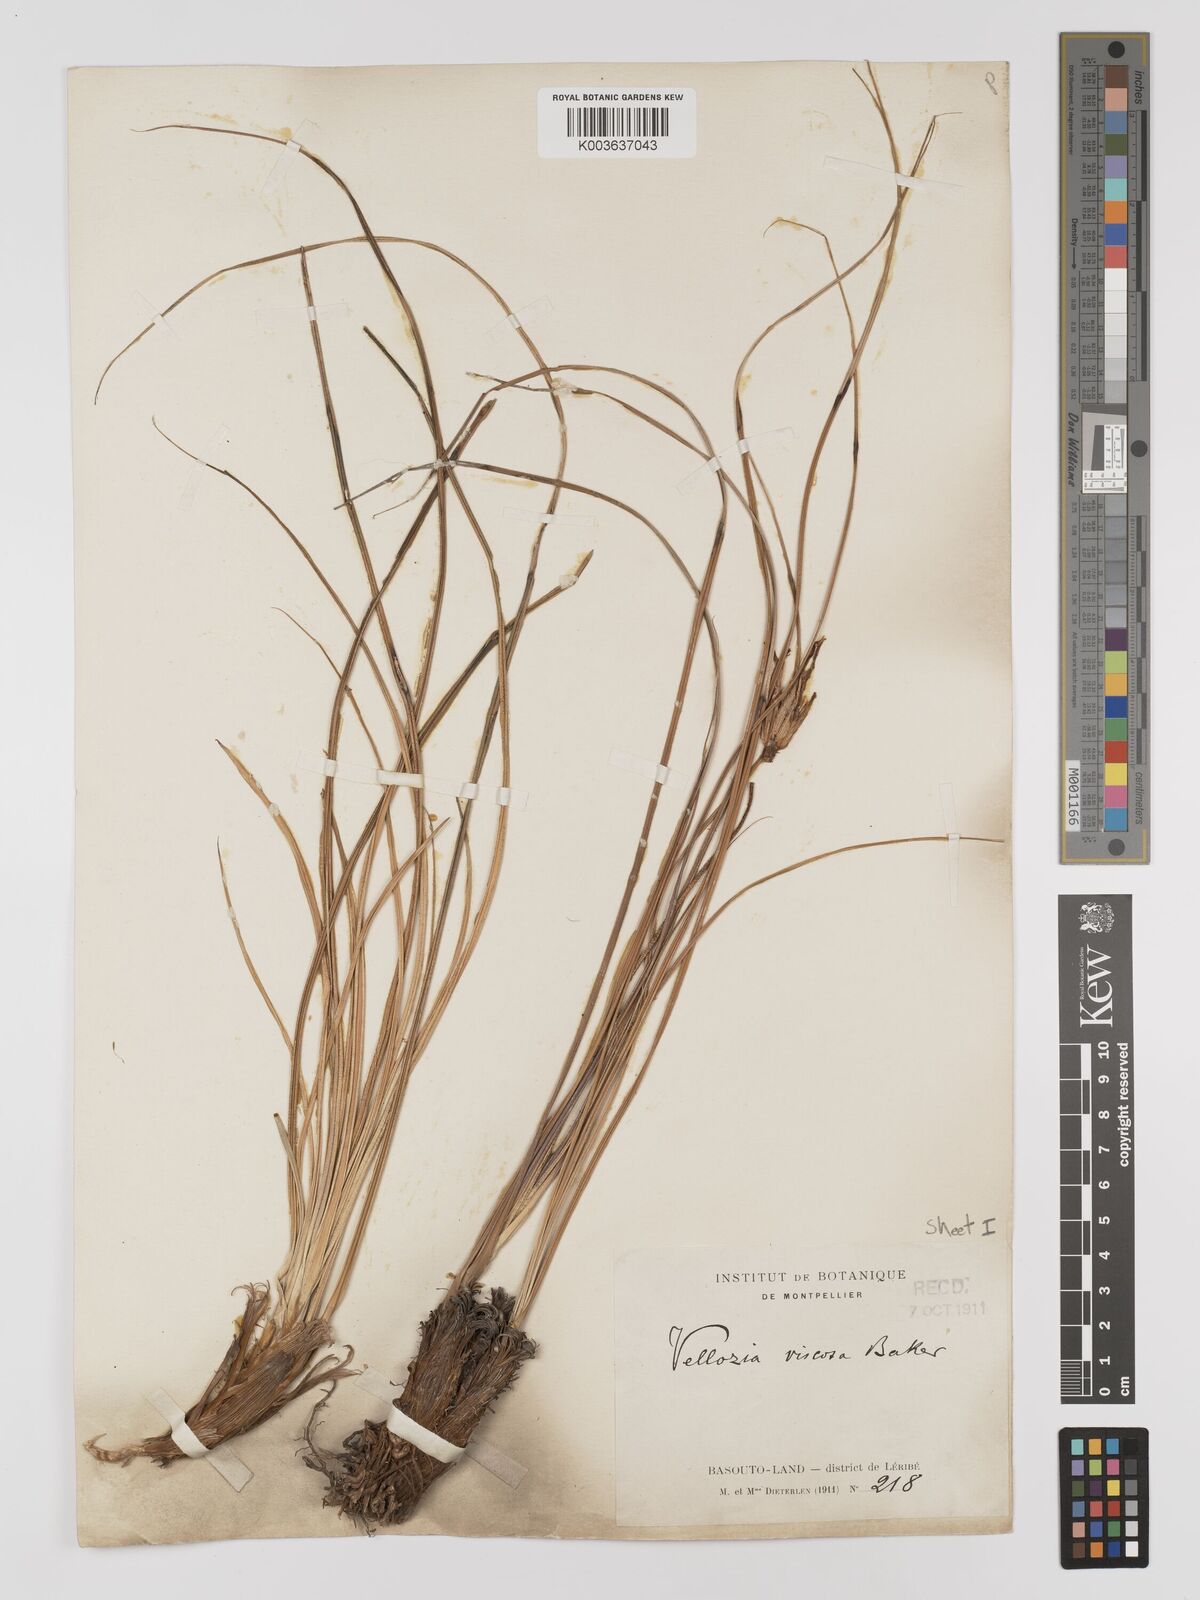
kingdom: Plantae
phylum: Tracheophyta
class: Liliopsida
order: Pandanales
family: Velloziaceae
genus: Xerophyta
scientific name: Xerophyta viscosa
